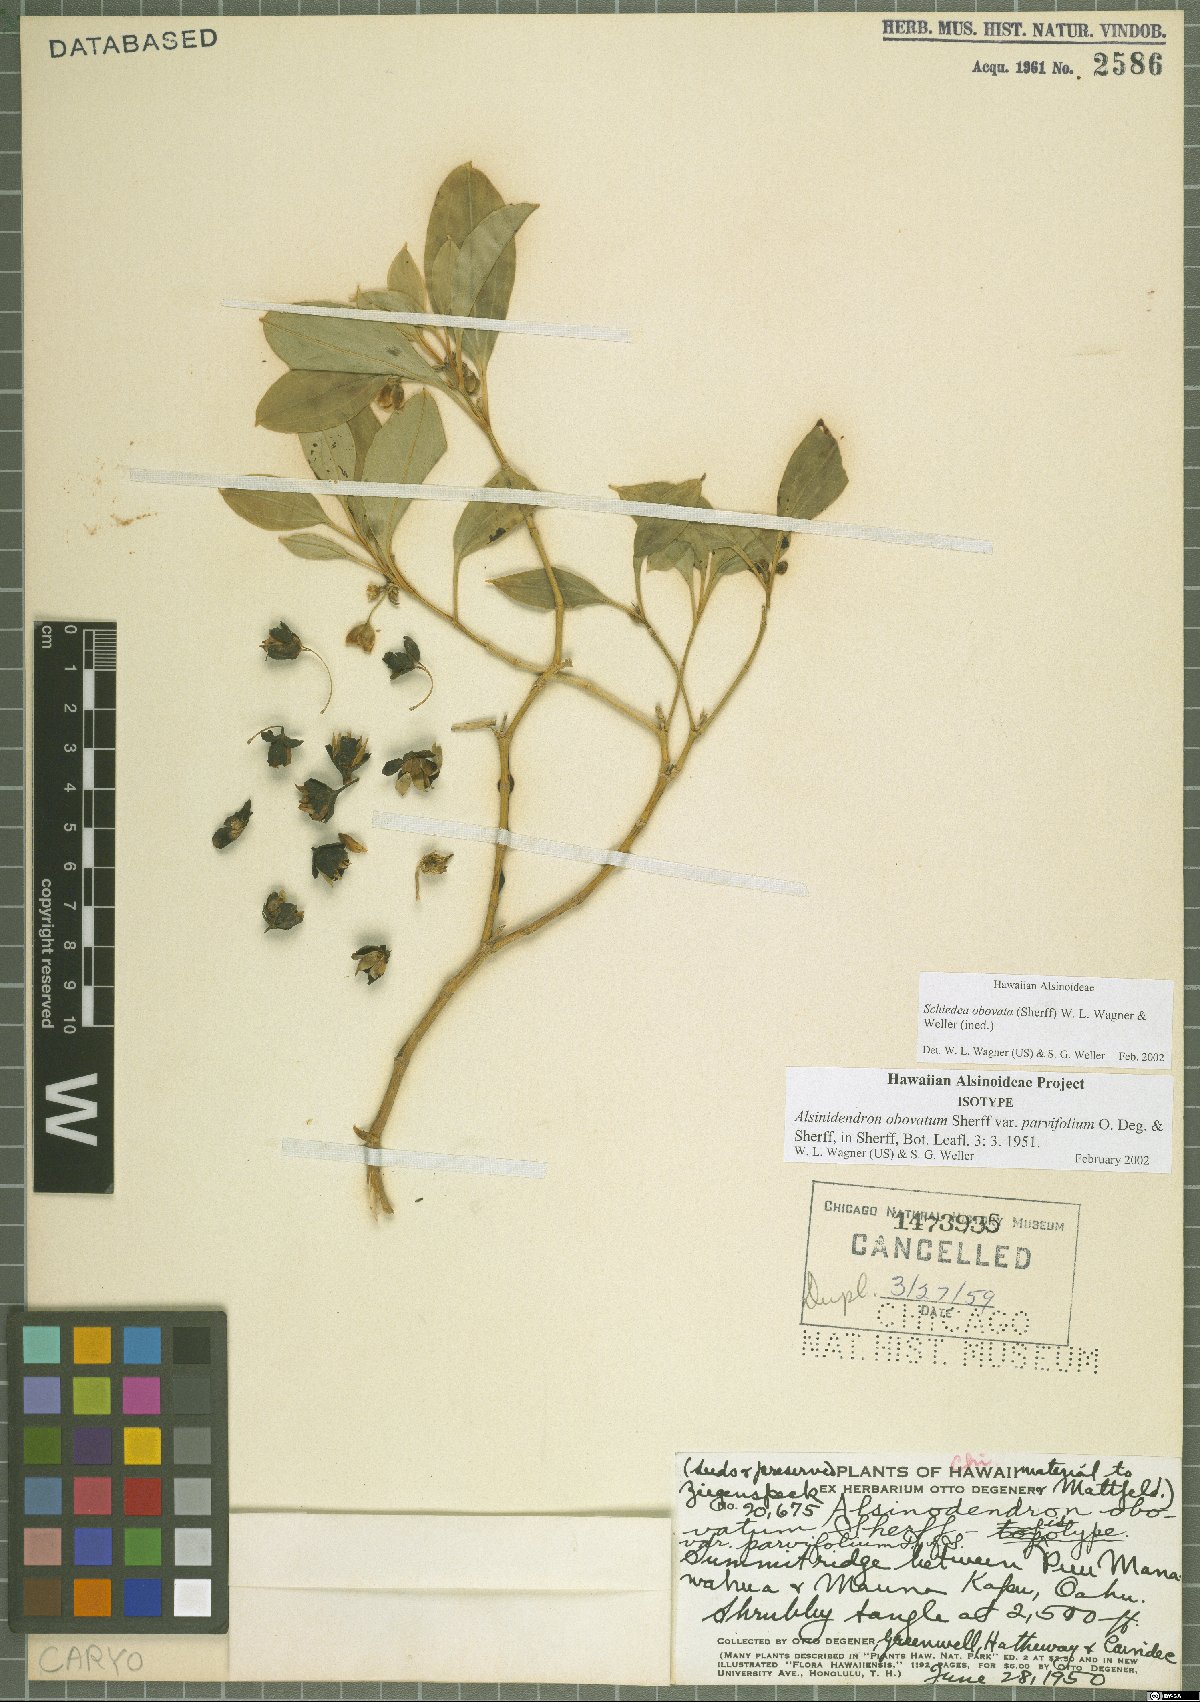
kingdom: Plantae
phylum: Tracheophyta
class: Magnoliopsida
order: Caryophyllales
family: Caryophyllaceae
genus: Schiedea
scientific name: Schiedea obovata
